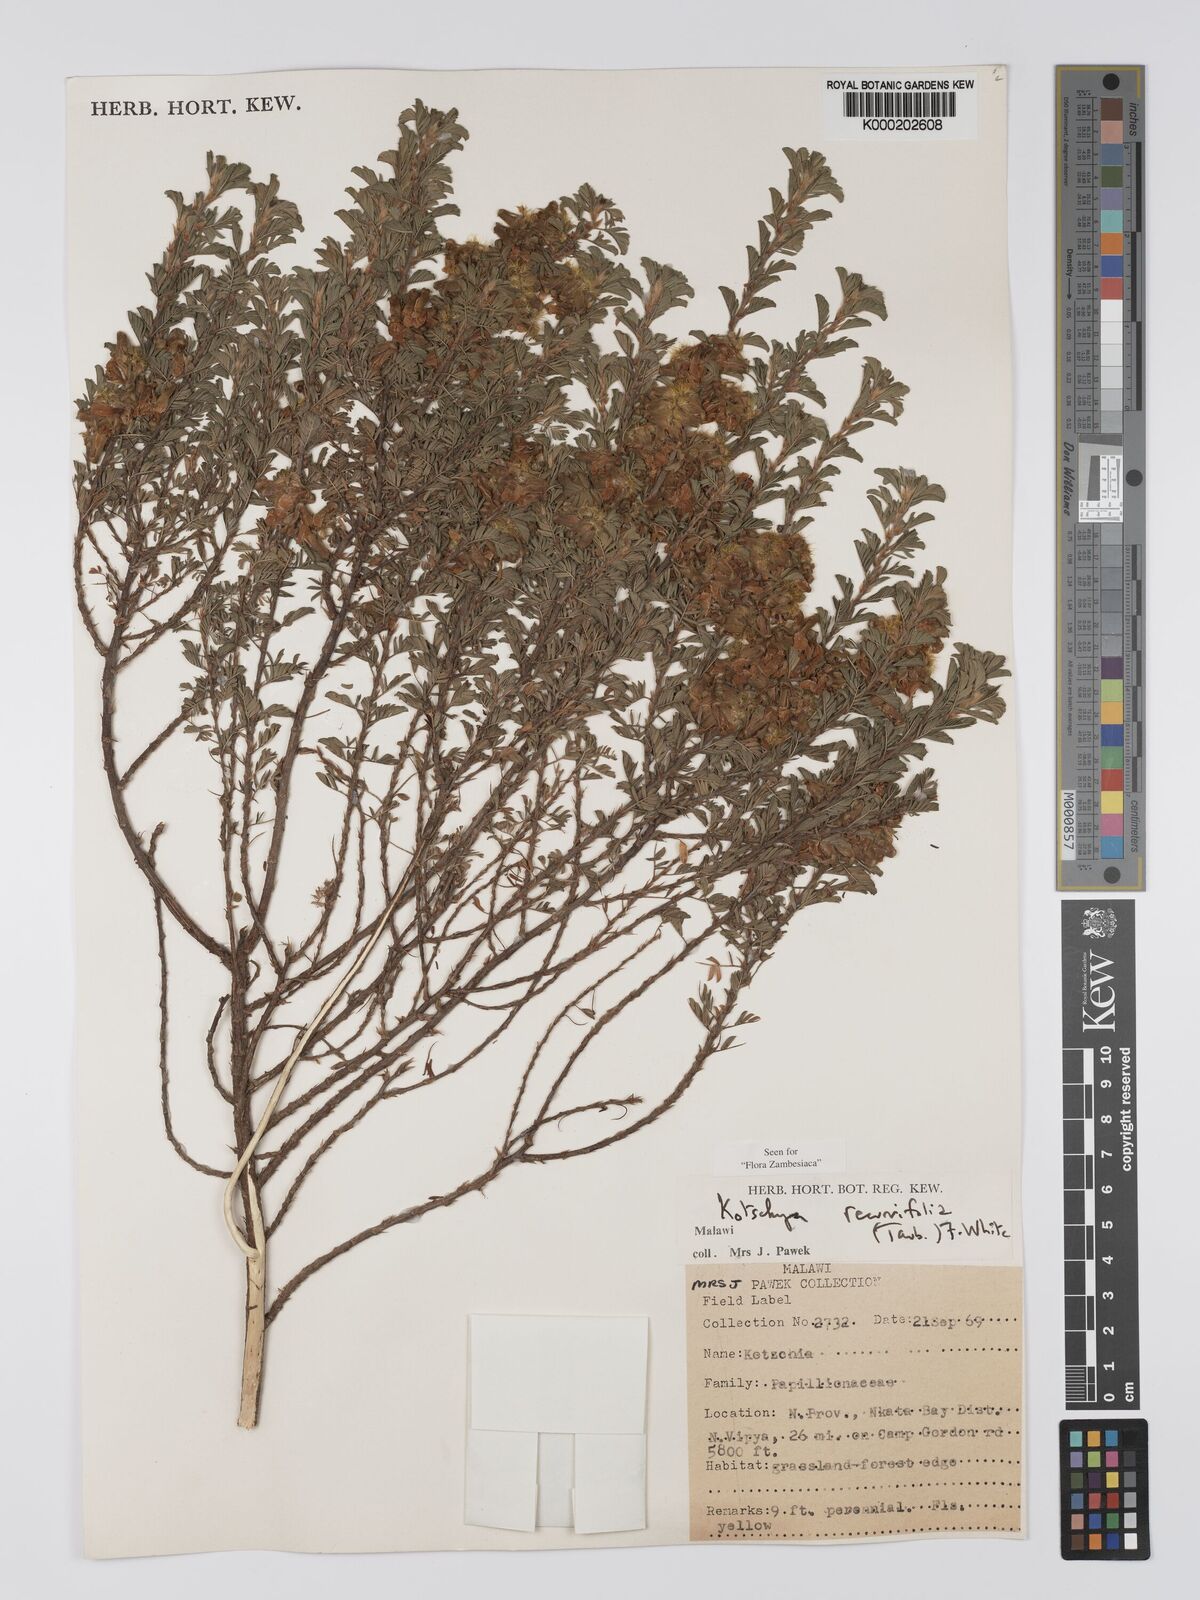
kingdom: Plantae
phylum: Tracheophyta
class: Magnoliopsida
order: Fabales
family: Fabaceae
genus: Kotschya
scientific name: Kotschya recurvifolia
